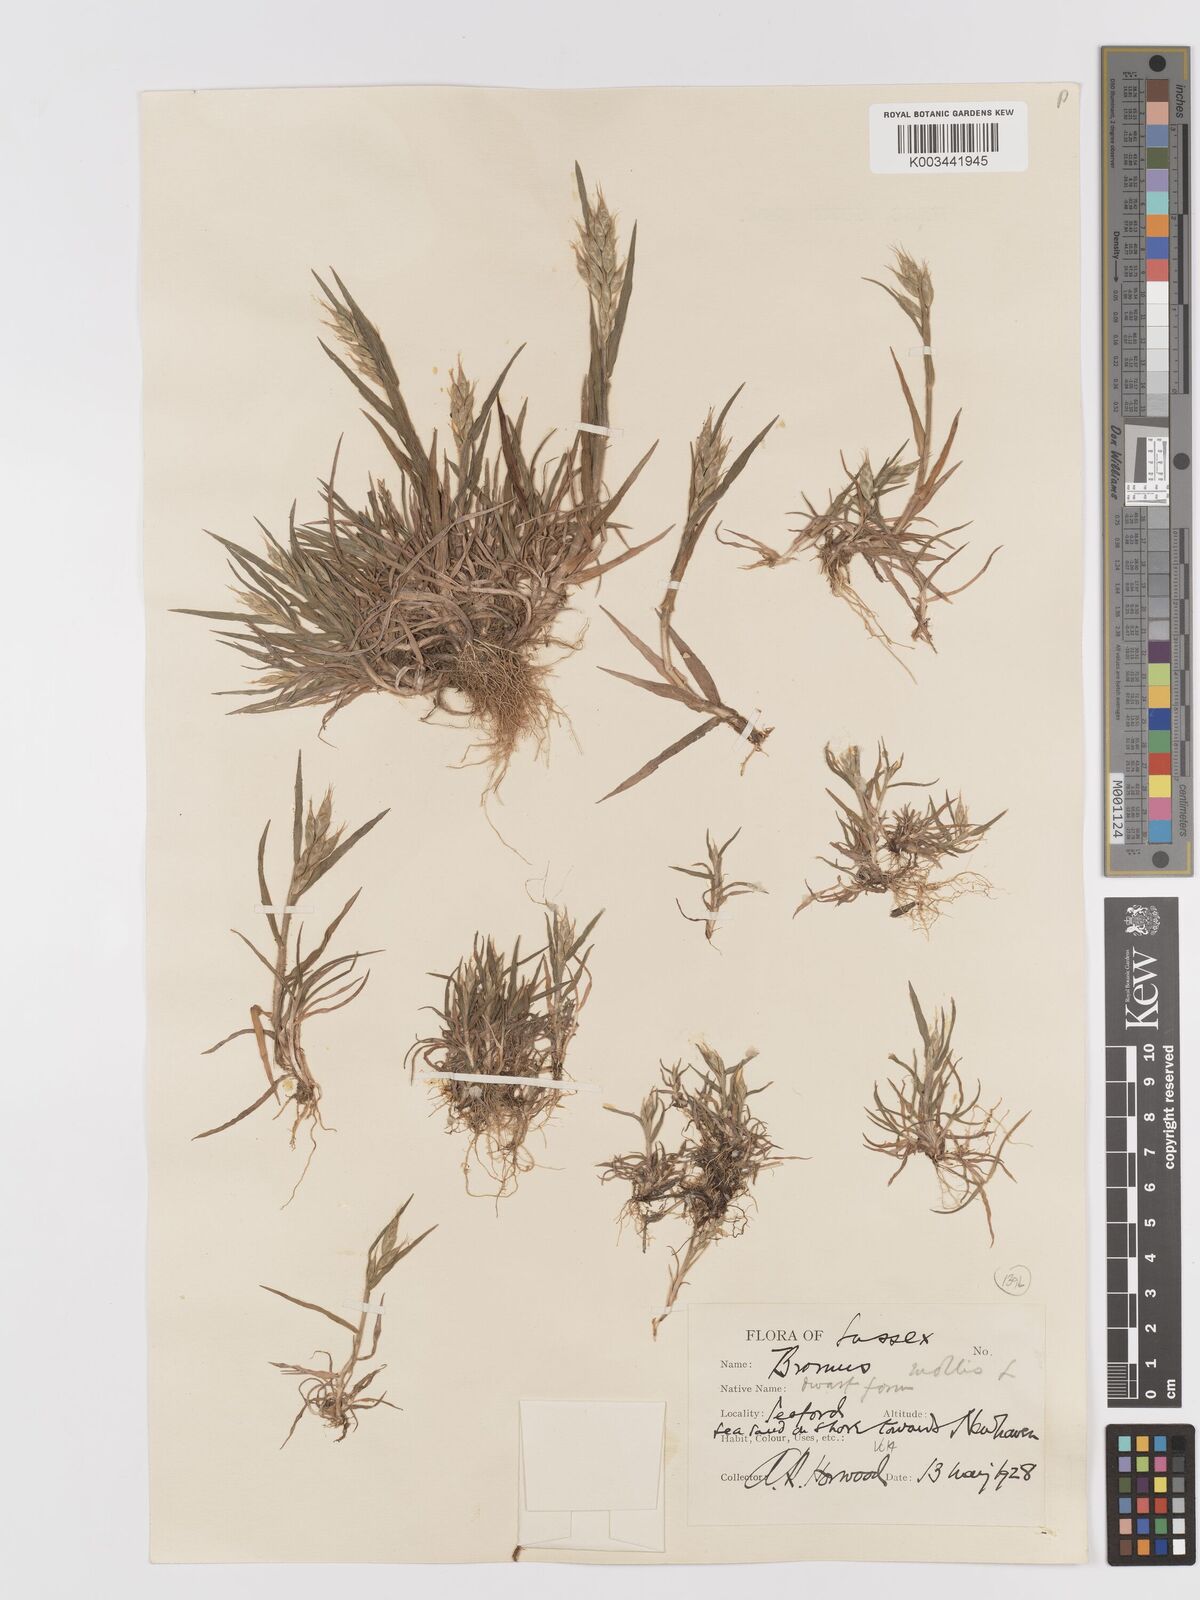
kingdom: Plantae
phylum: Tracheophyta
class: Liliopsida
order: Poales
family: Poaceae
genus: Bromus
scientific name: Bromus hordeaceus
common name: Soft brome
